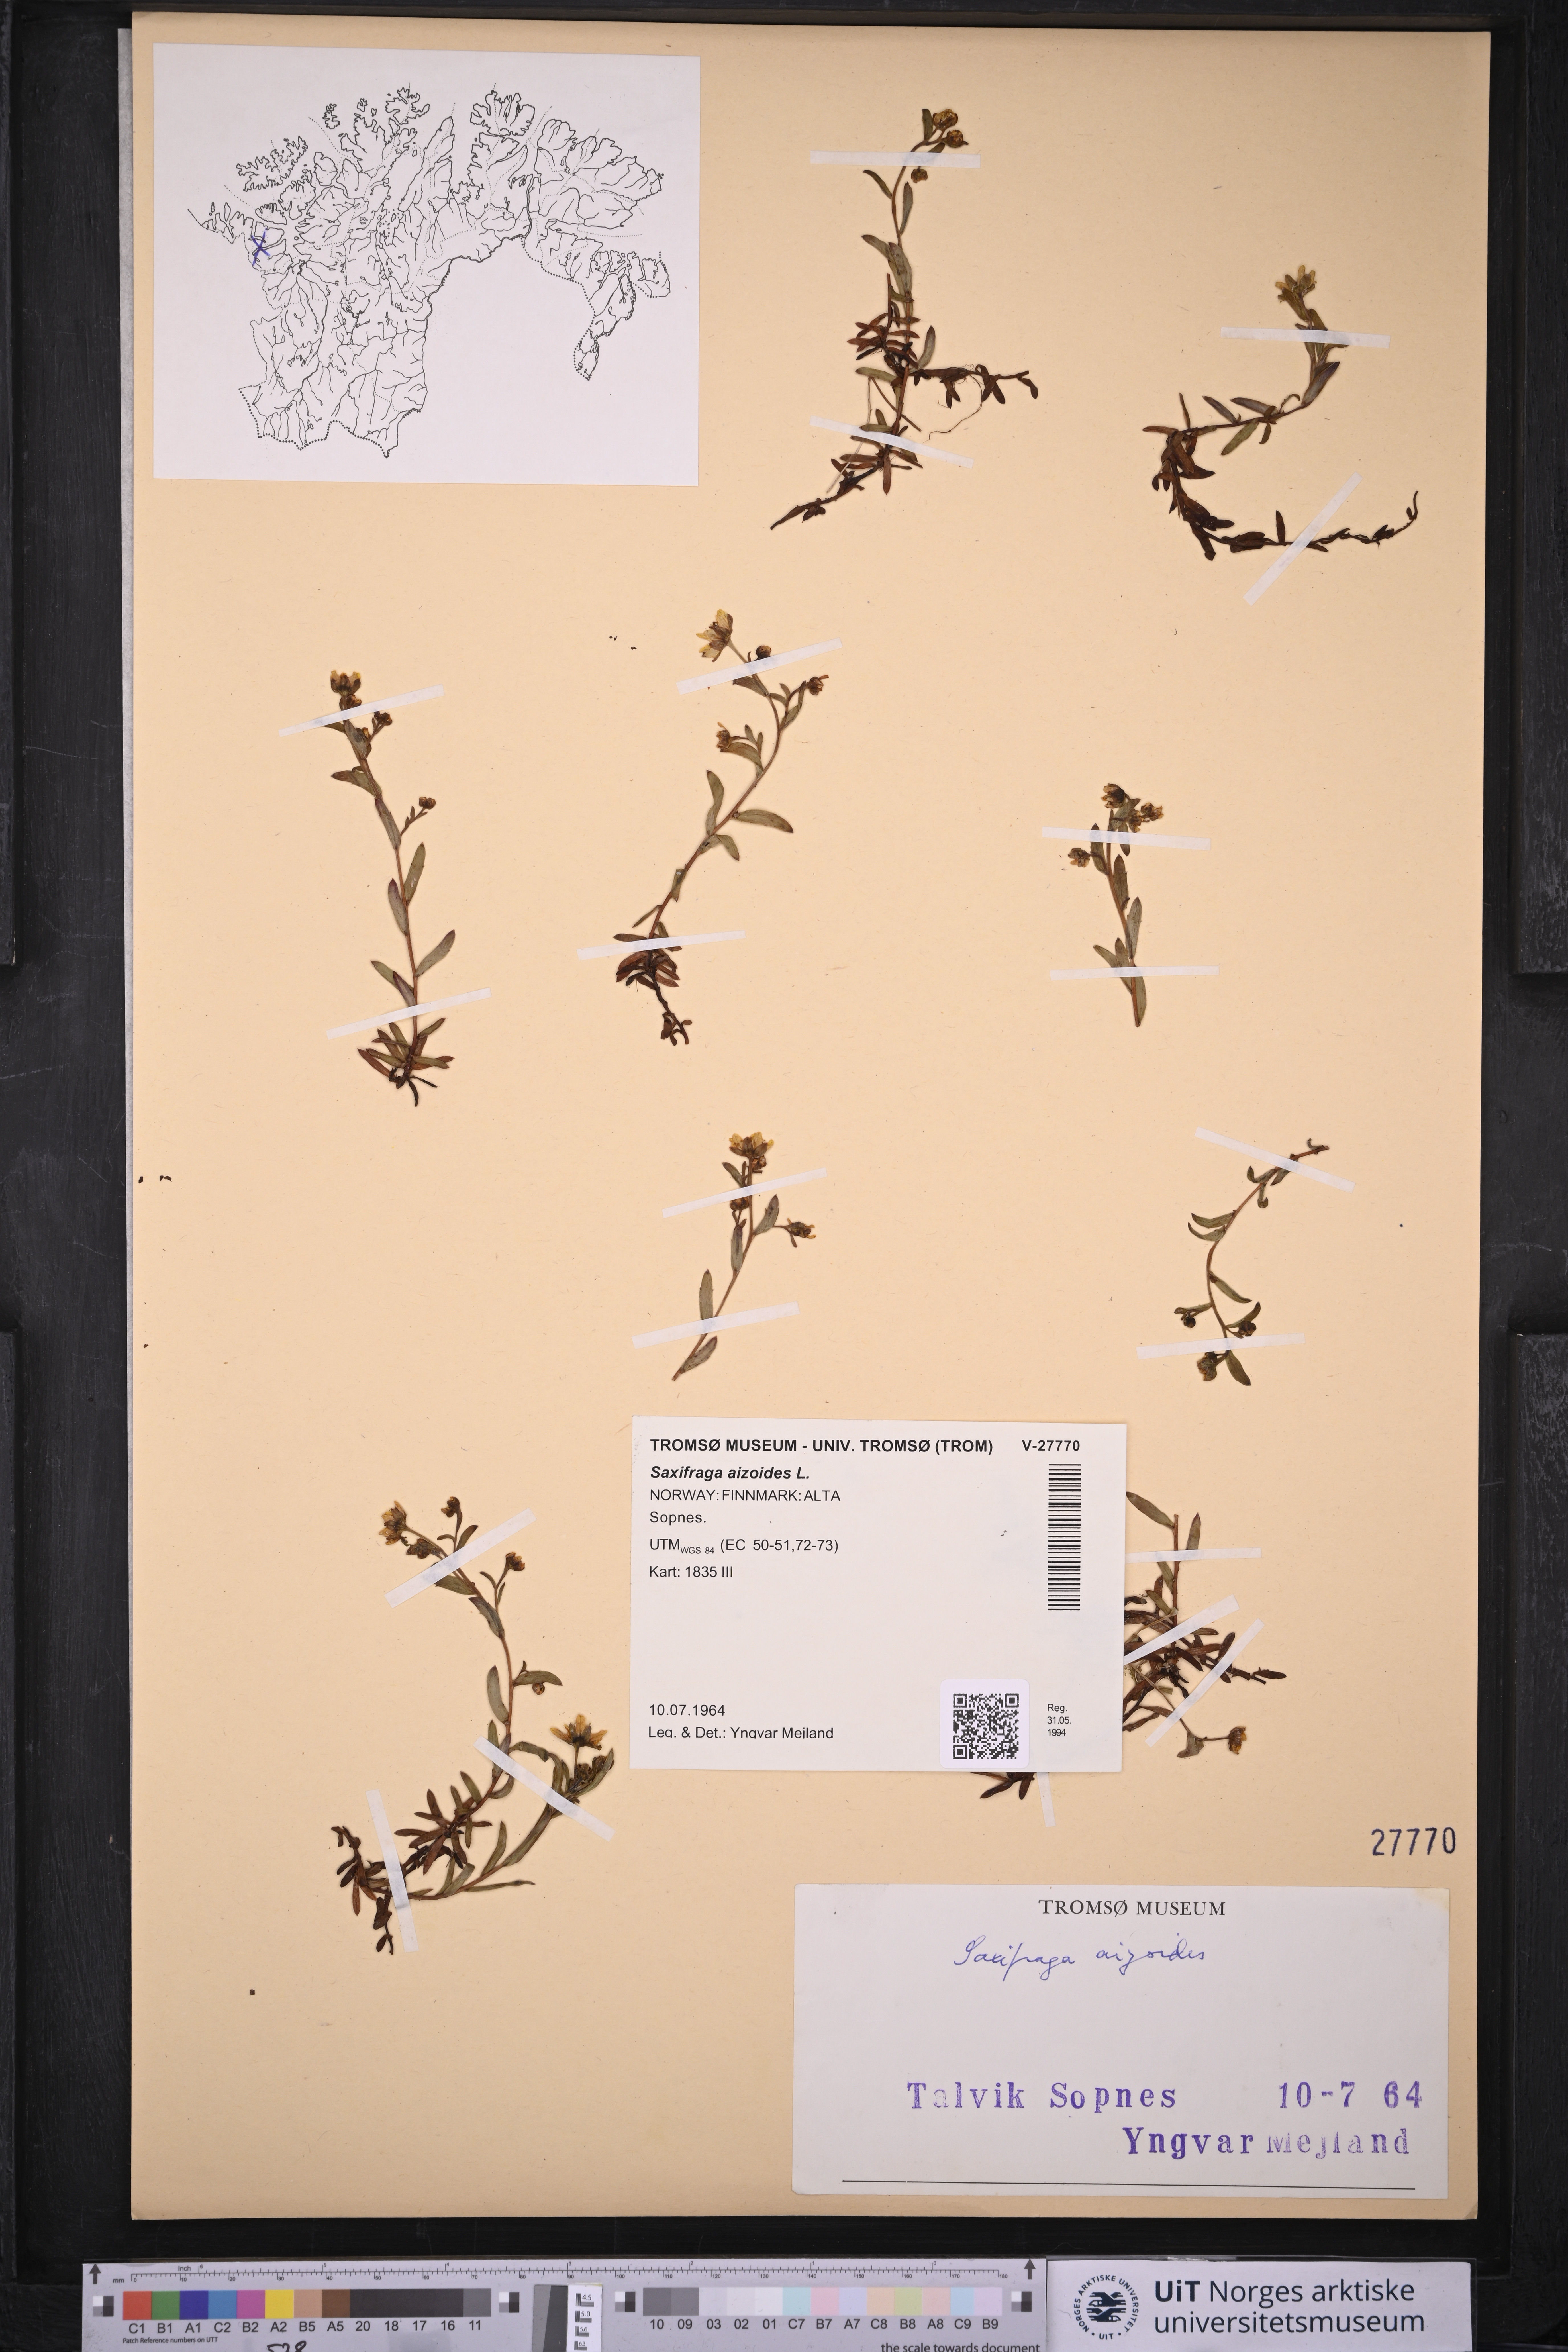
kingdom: Plantae
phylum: Tracheophyta
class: Magnoliopsida
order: Saxifragales
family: Saxifragaceae
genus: Saxifraga
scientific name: Saxifraga aizoides
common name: Yellow mountain saxifrage
